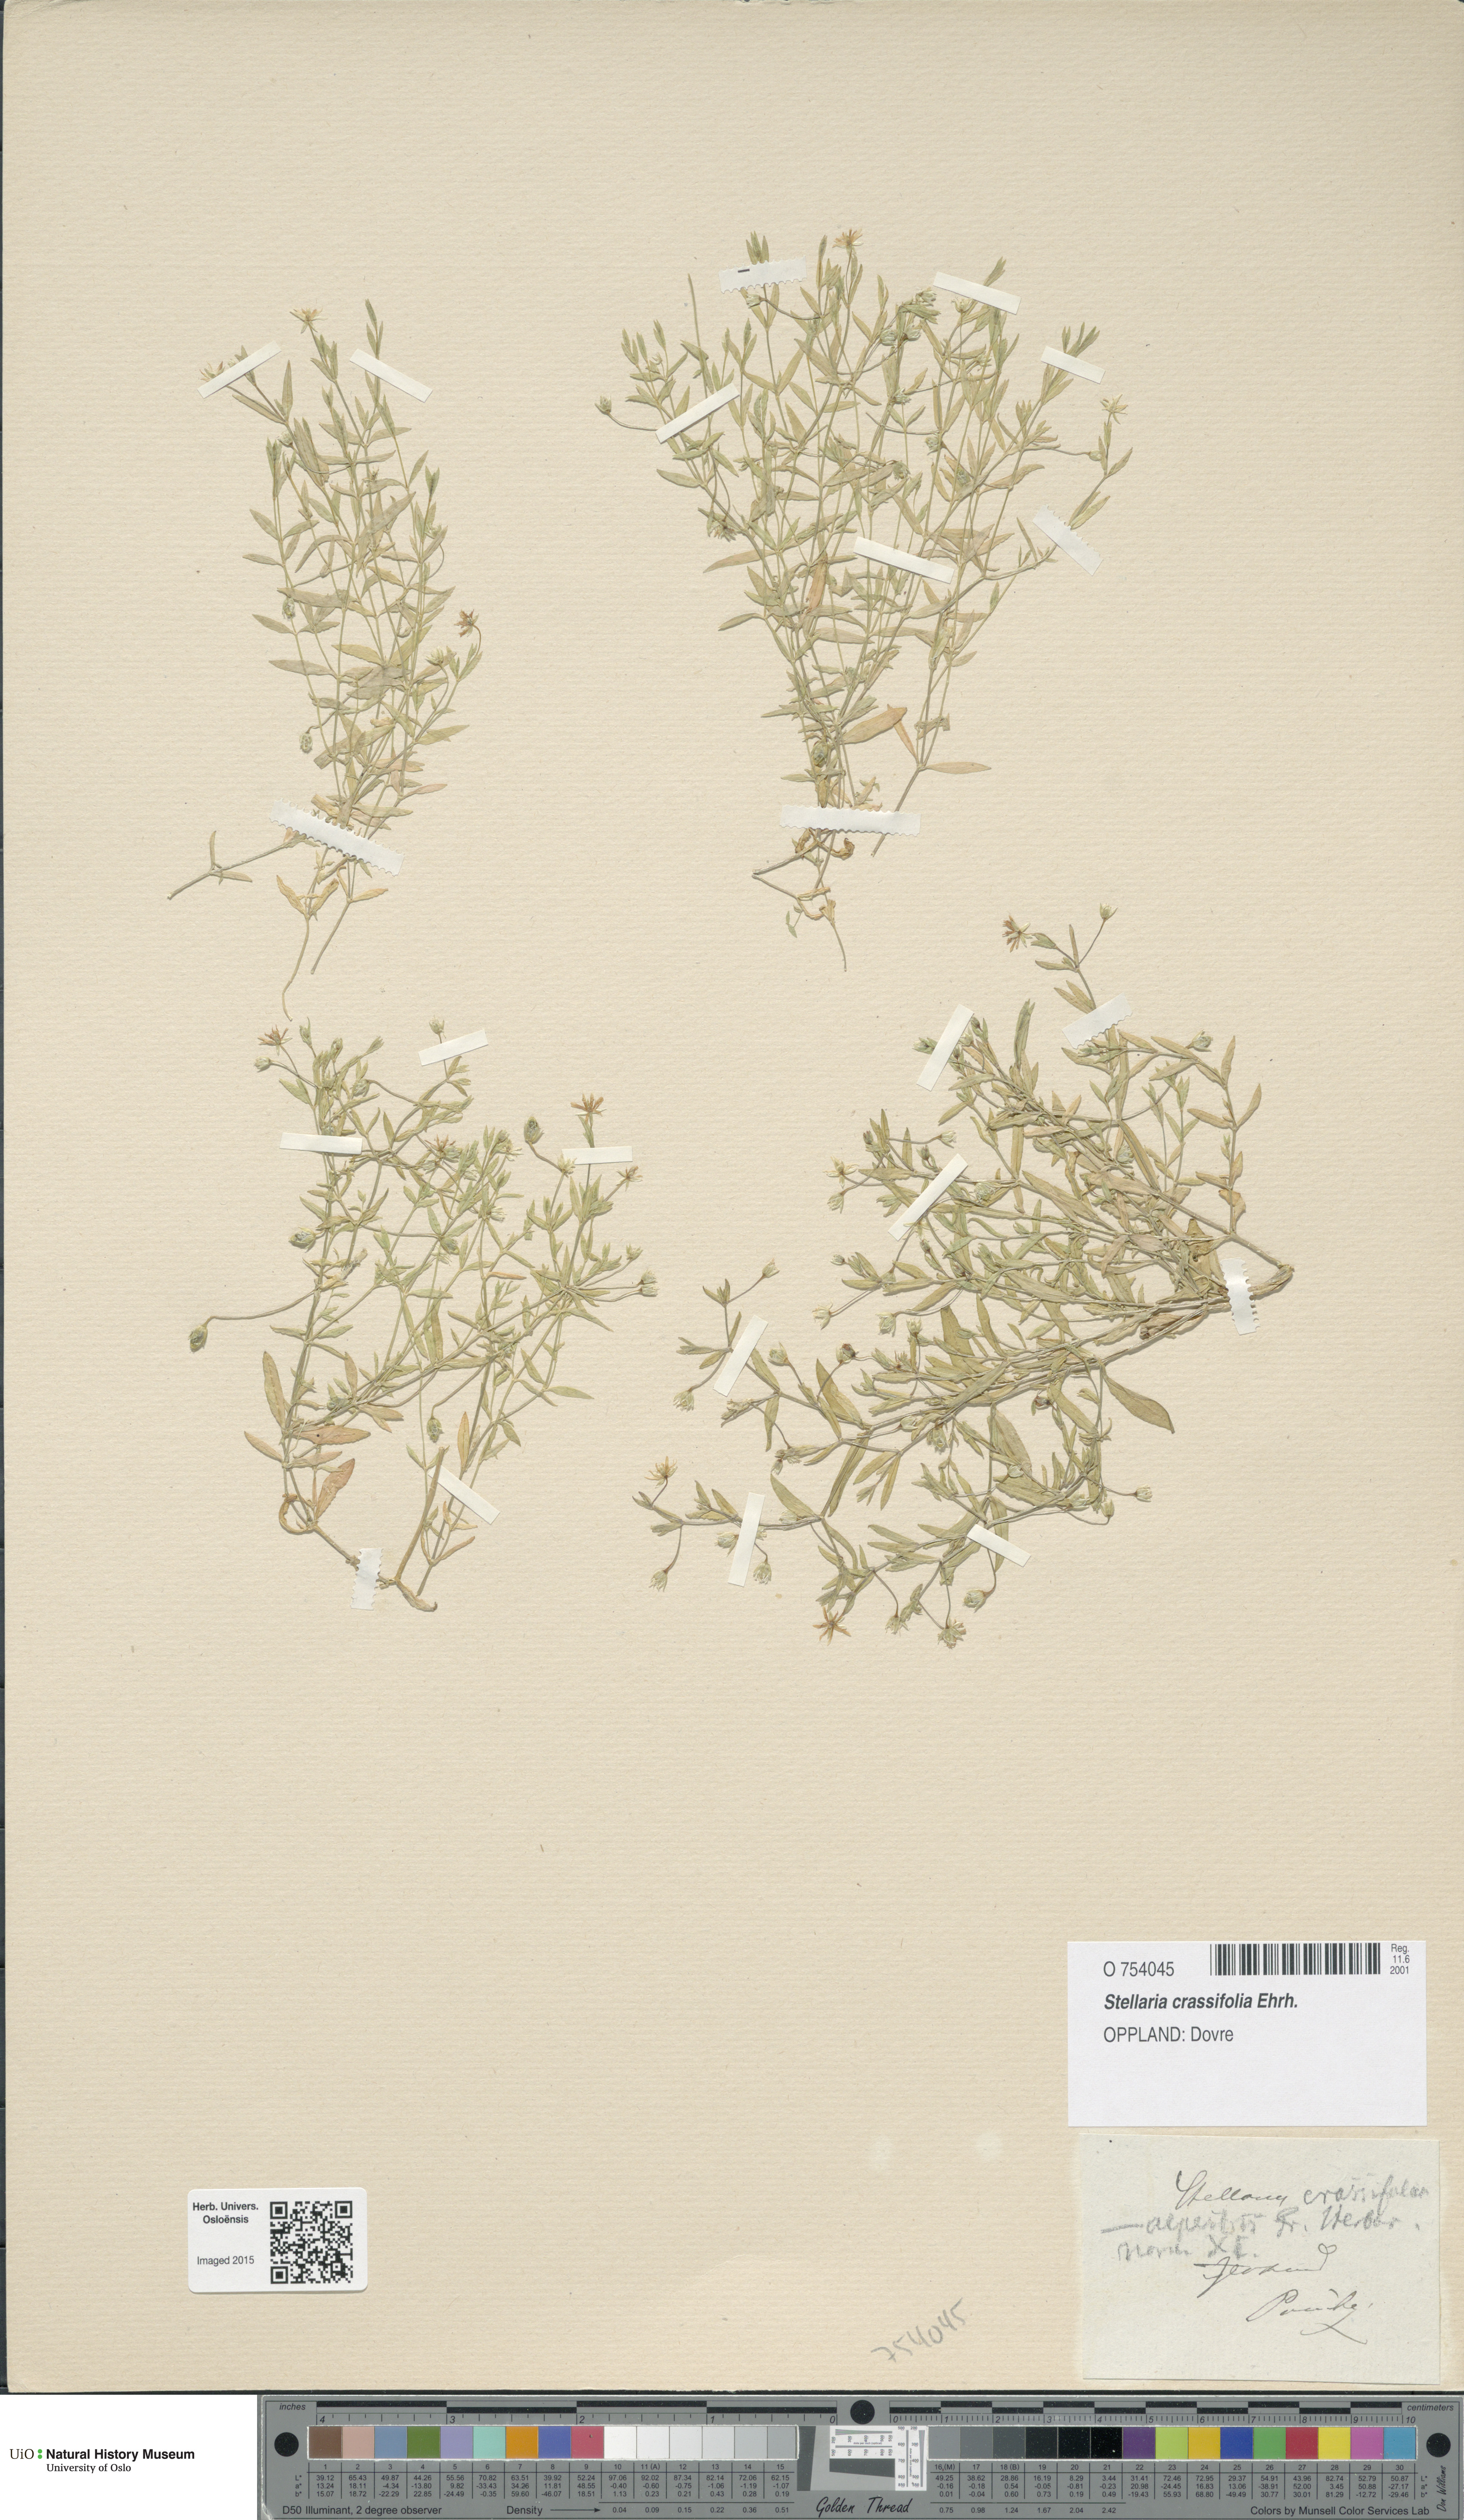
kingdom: Plantae
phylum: Tracheophyta
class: Magnoliopsida
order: Caryophyllales
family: Caryophyllaceae
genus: Stellaria
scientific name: Stellaria crassifolia
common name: Fleshy starwort
